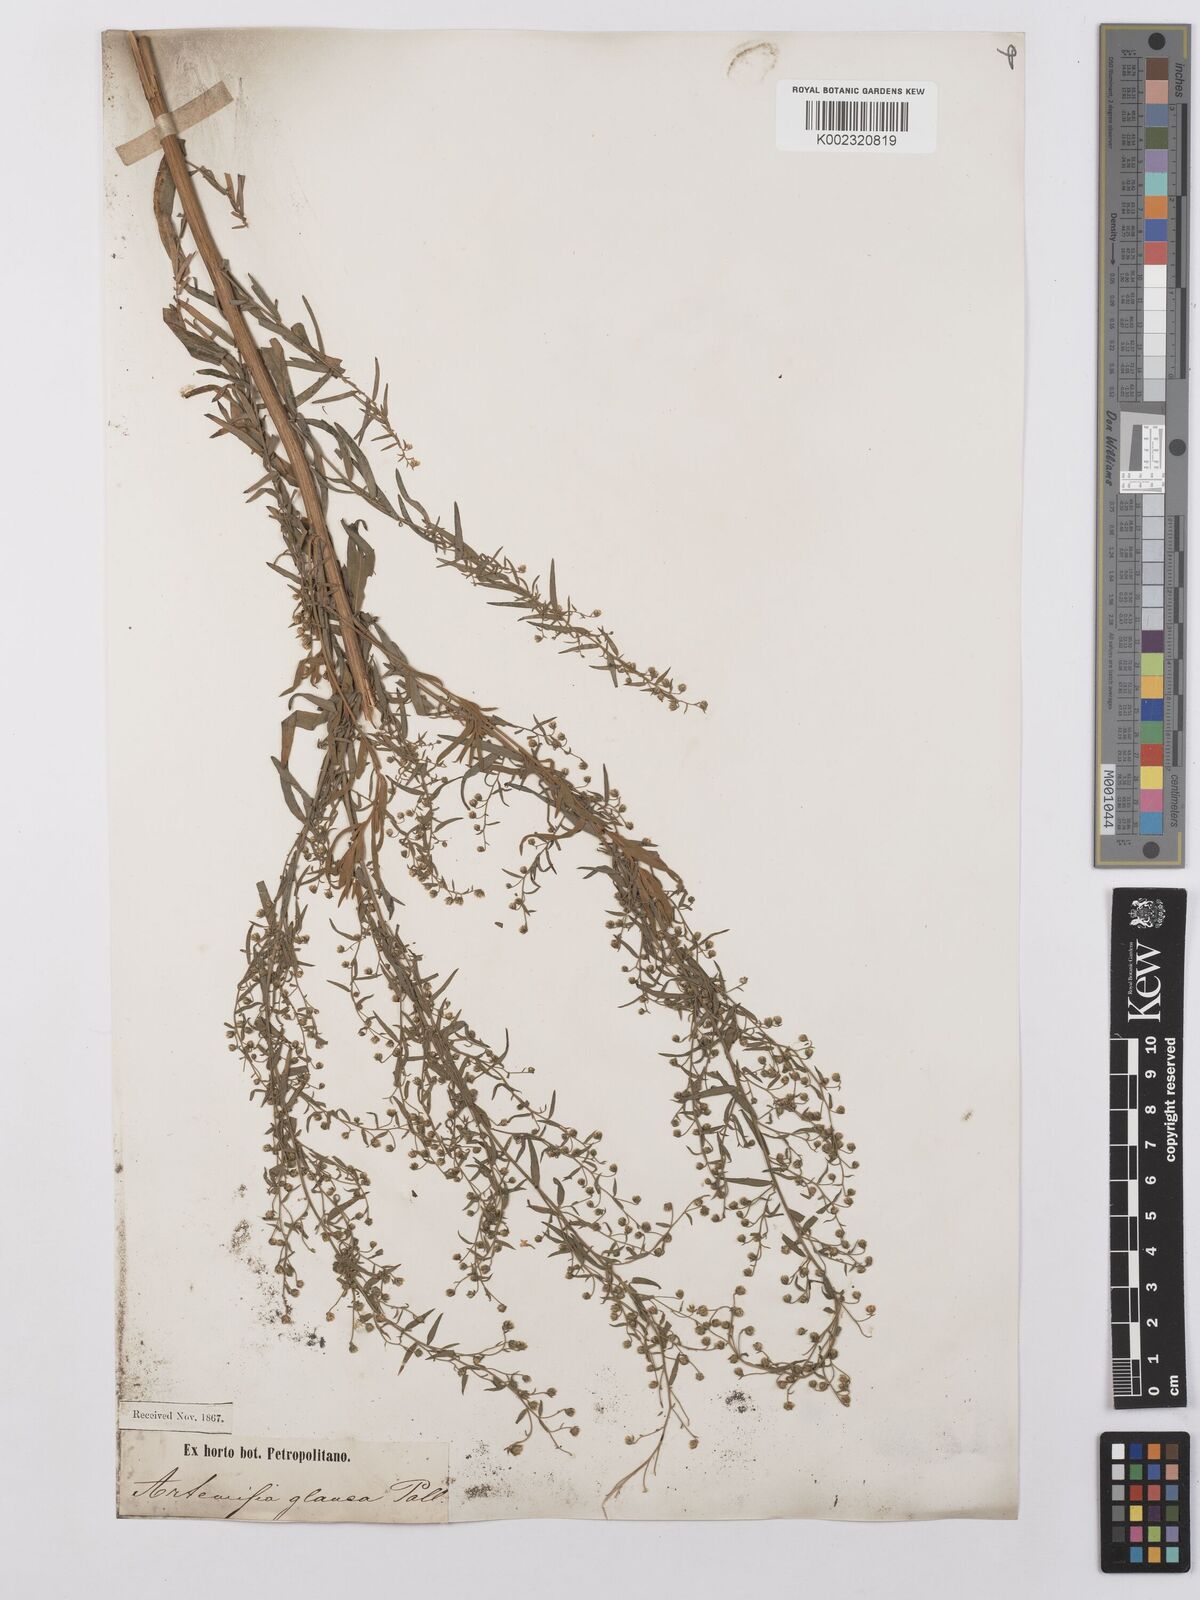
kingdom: Plantae
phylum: Tracheophyta
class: Magnoliopsida
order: Asterales
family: Asteraceae
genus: Artemisia
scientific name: Artemisia glauca
